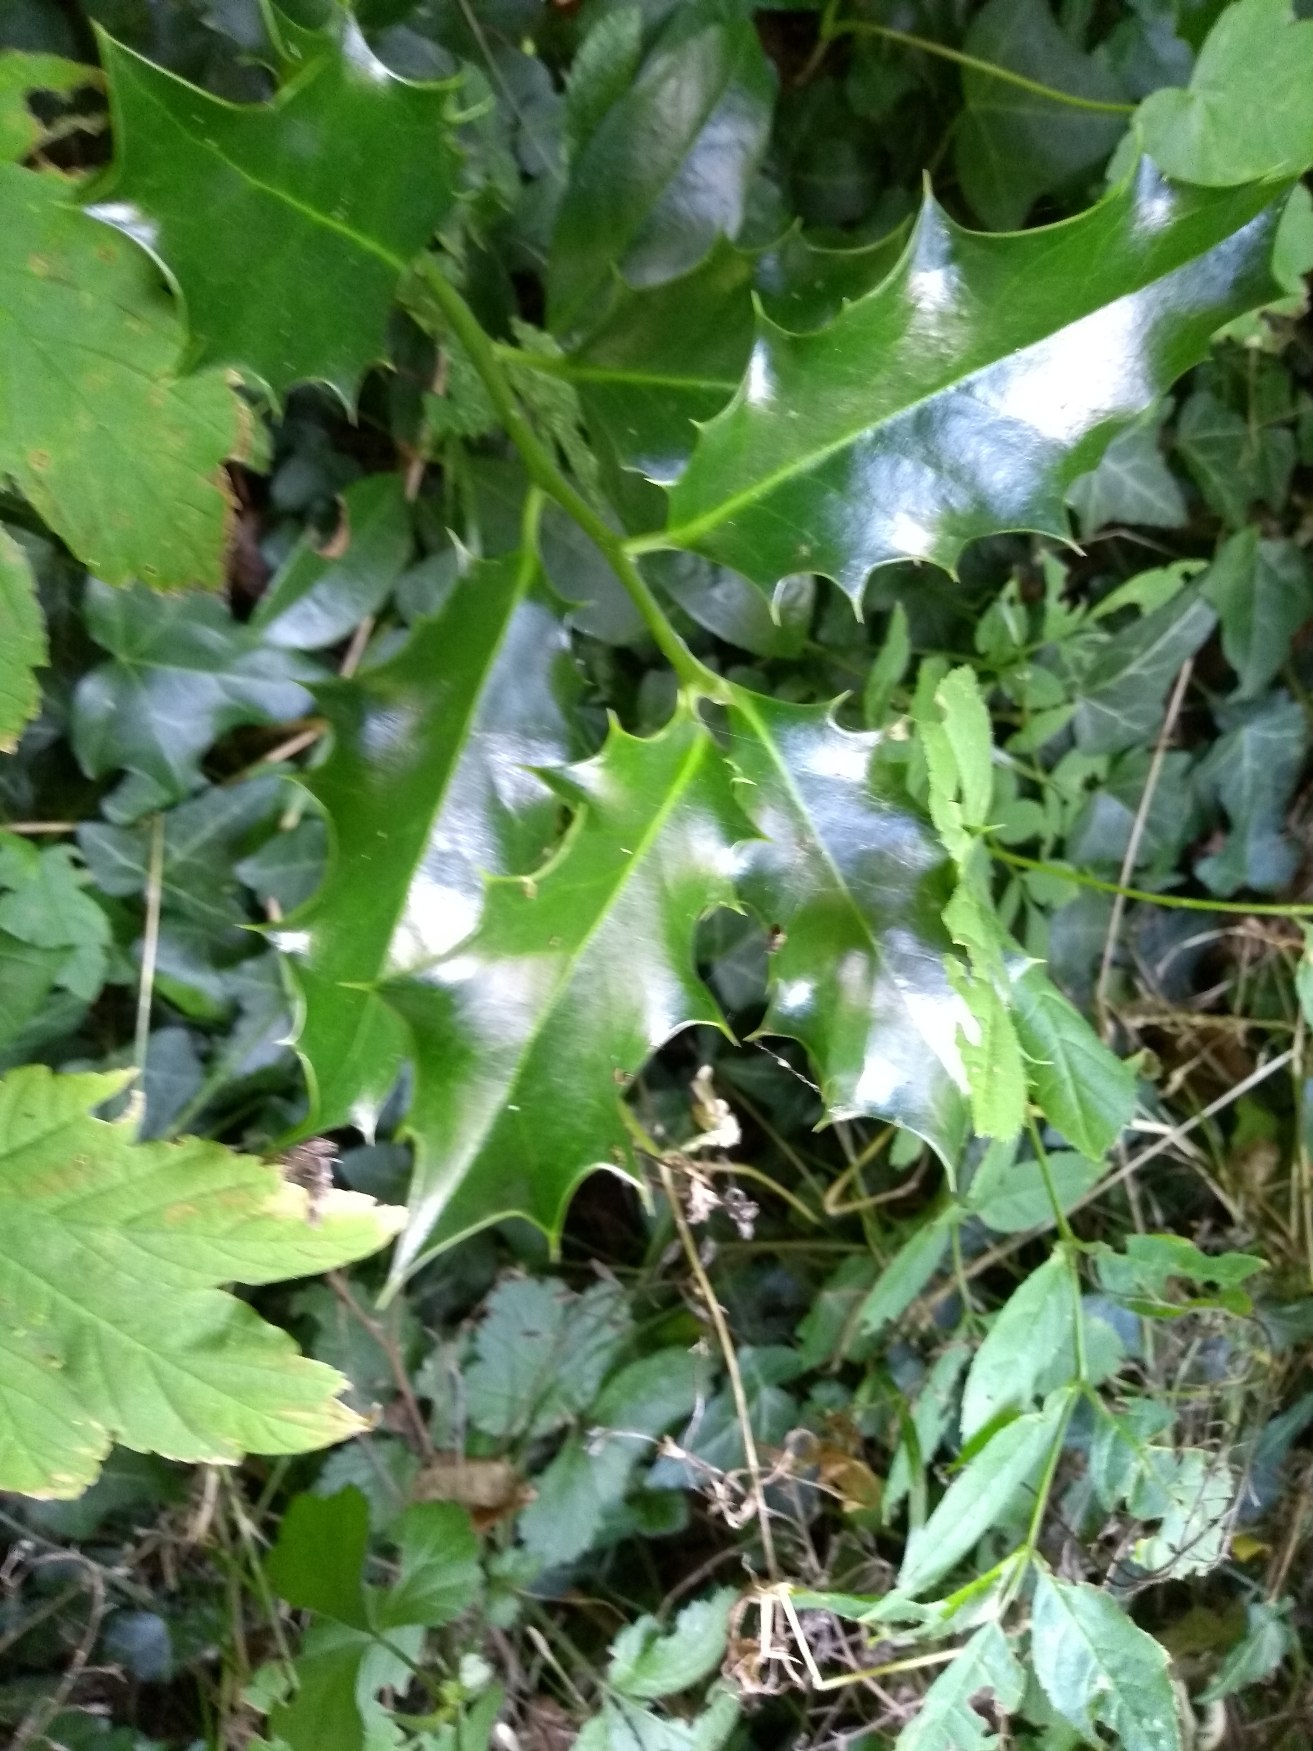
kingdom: Plantae
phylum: Tracheophyta
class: Magnoliopsida
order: Aquifoliales
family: Aquifoliaceae
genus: Ilex
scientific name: Ilex aquifolium
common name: Kristtorn
